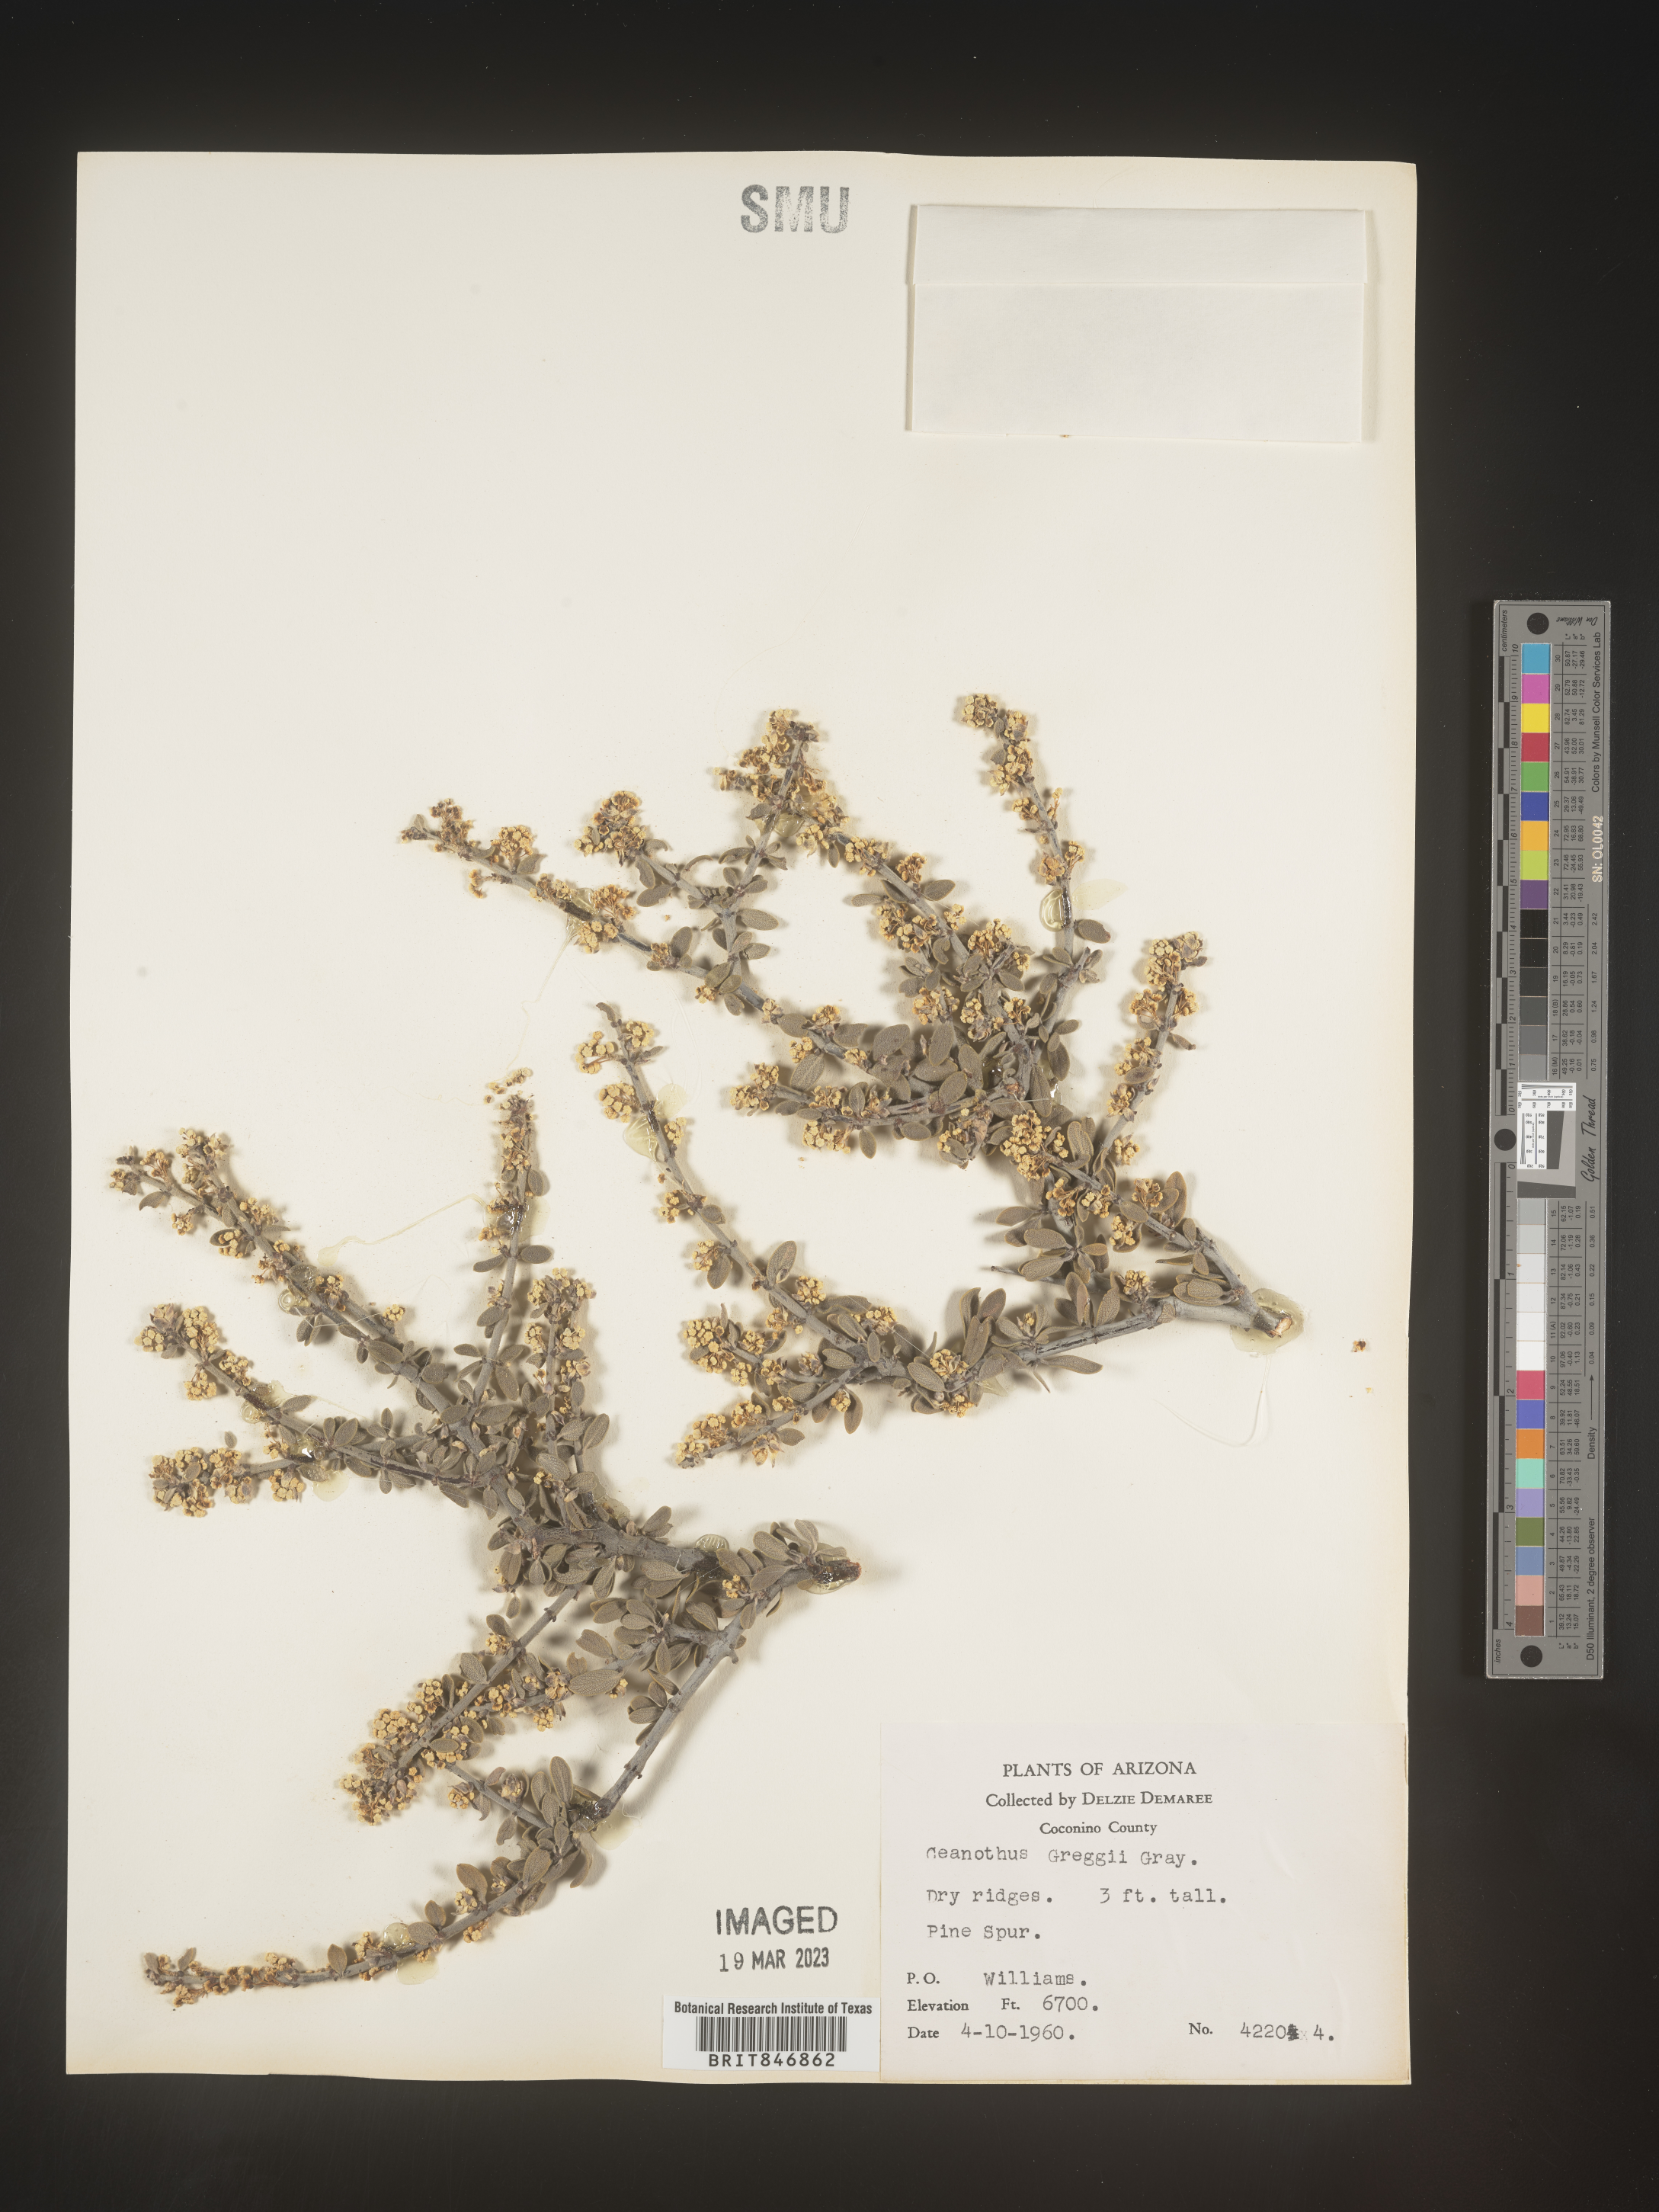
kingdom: Plantae
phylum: Tracheophyta
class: Magnoliopsida
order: Rosales
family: Rhamnaceae
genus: Ceanothus
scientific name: Ceanothus
